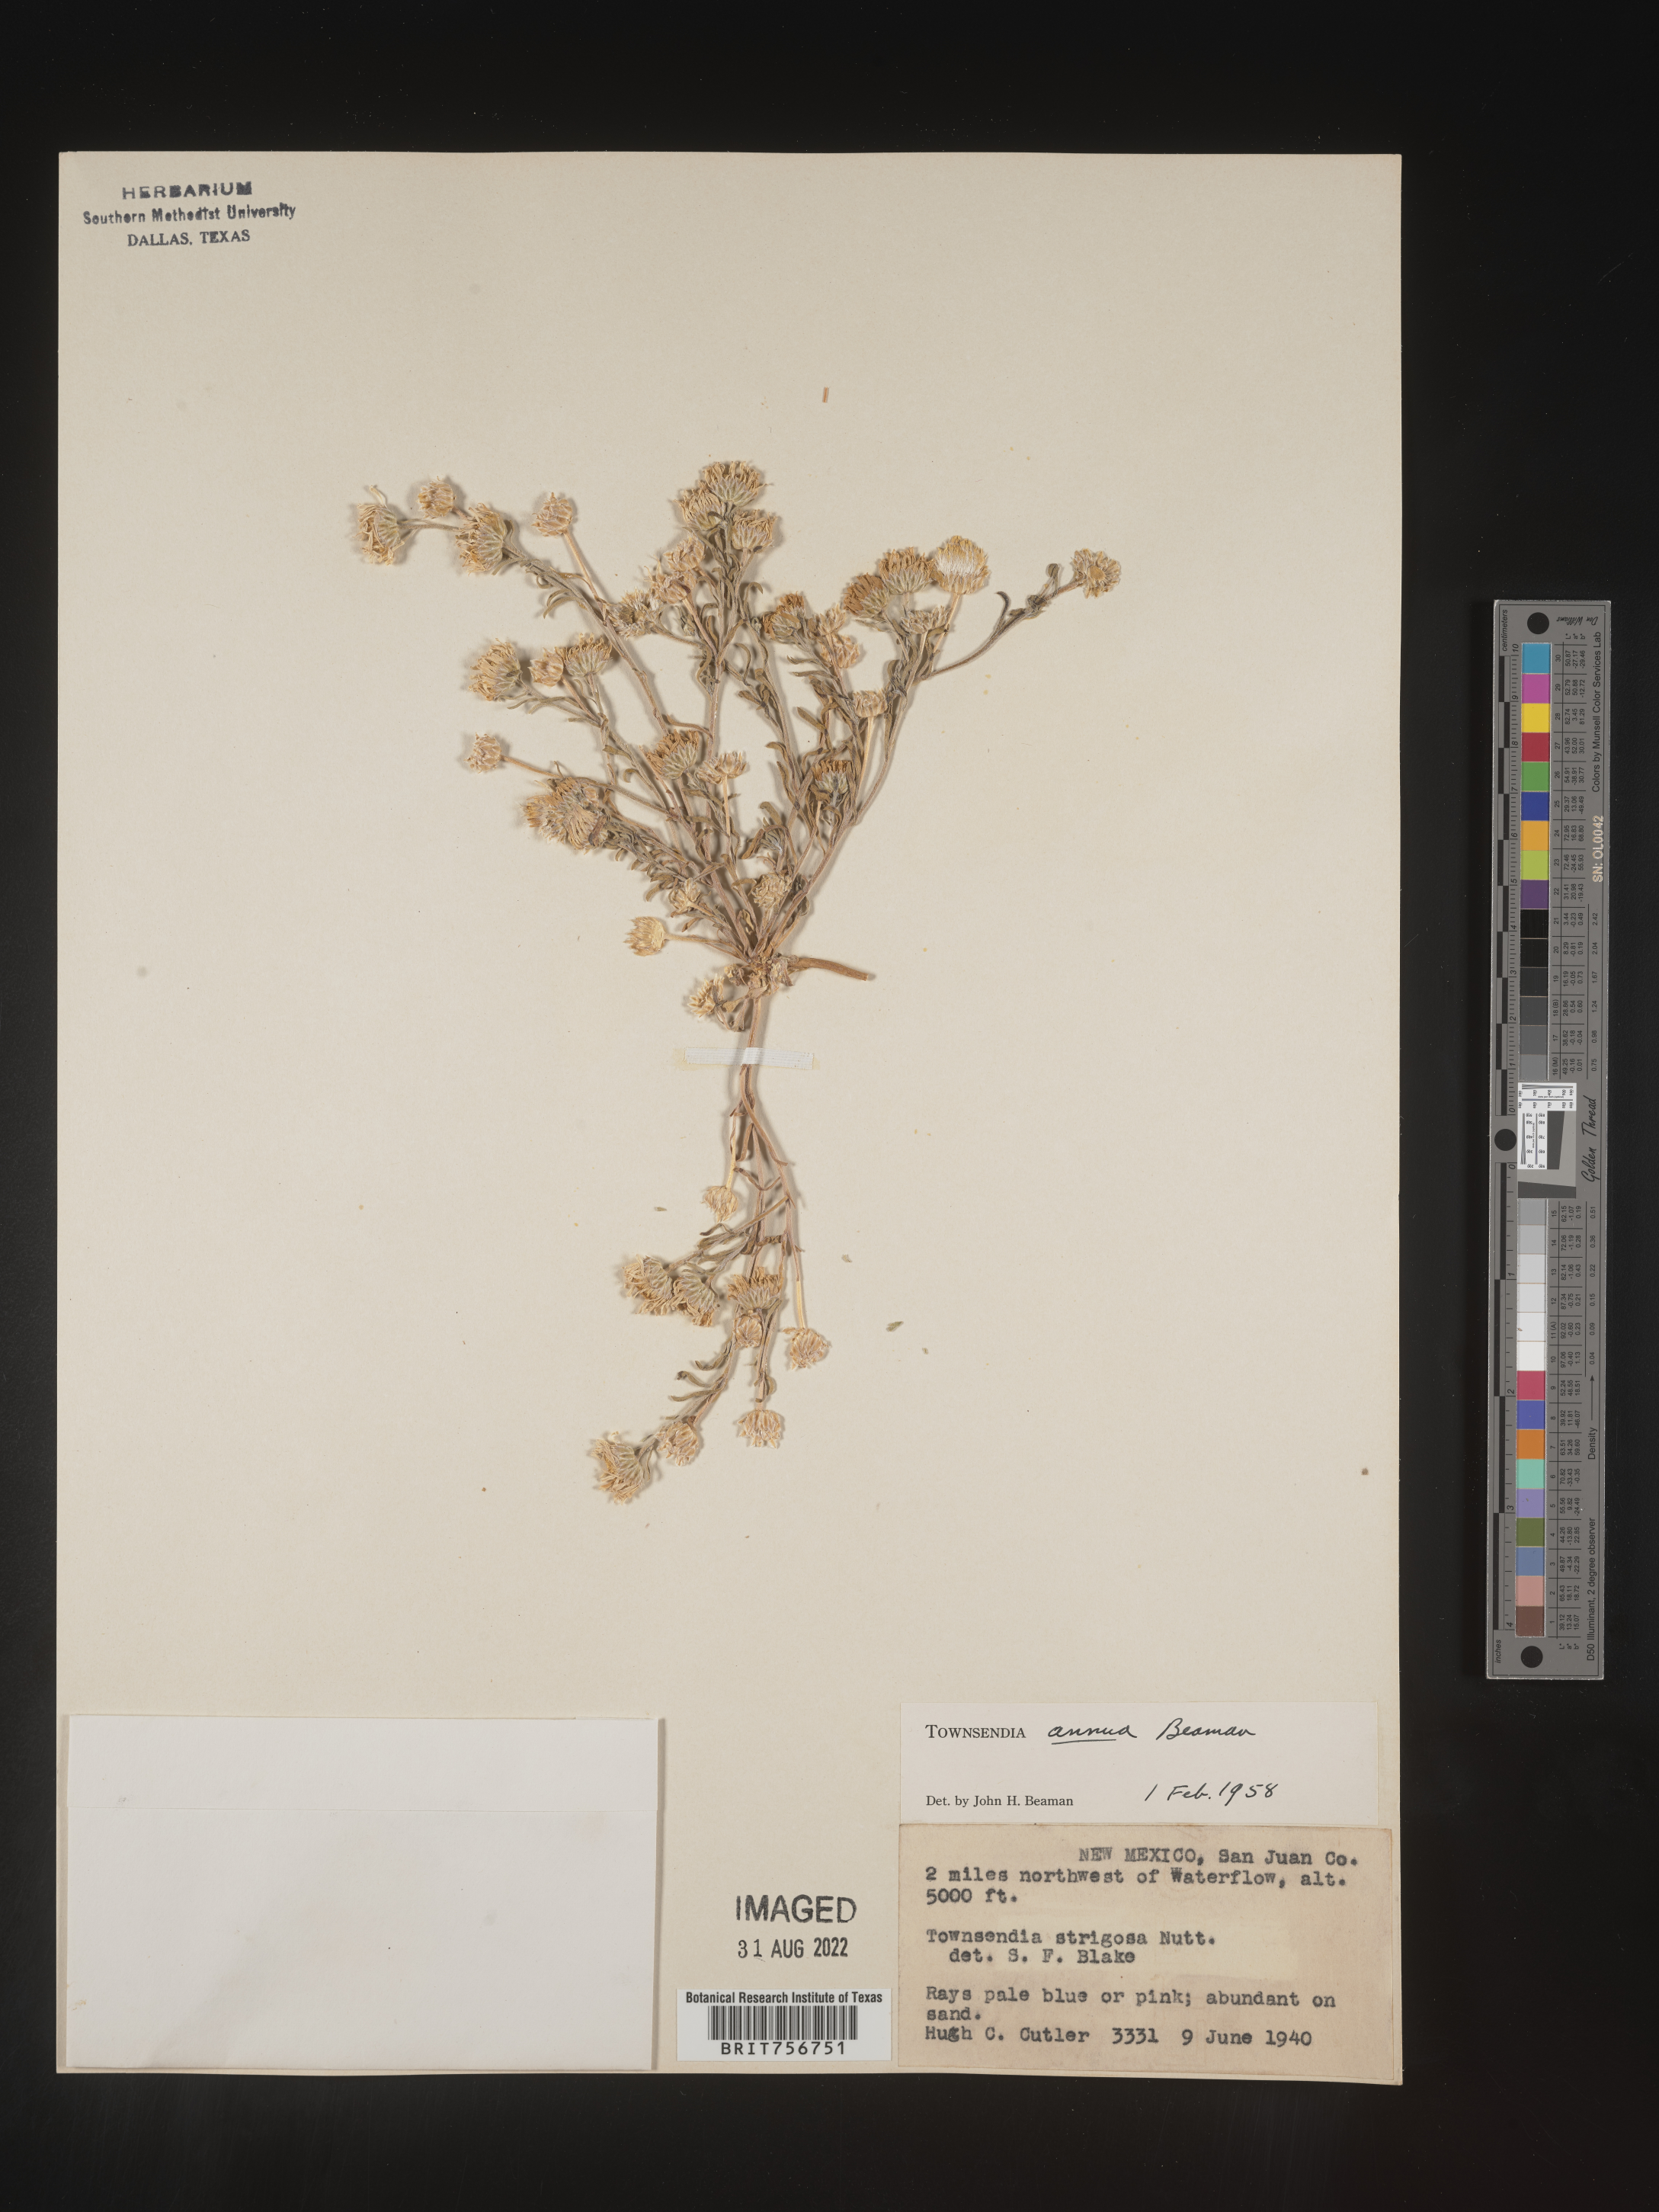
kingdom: Plantae
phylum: Tracheophyta
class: Magnoliopsida
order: Asterales
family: Asteraceae
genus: Townsendia
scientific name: Townsendia annua
